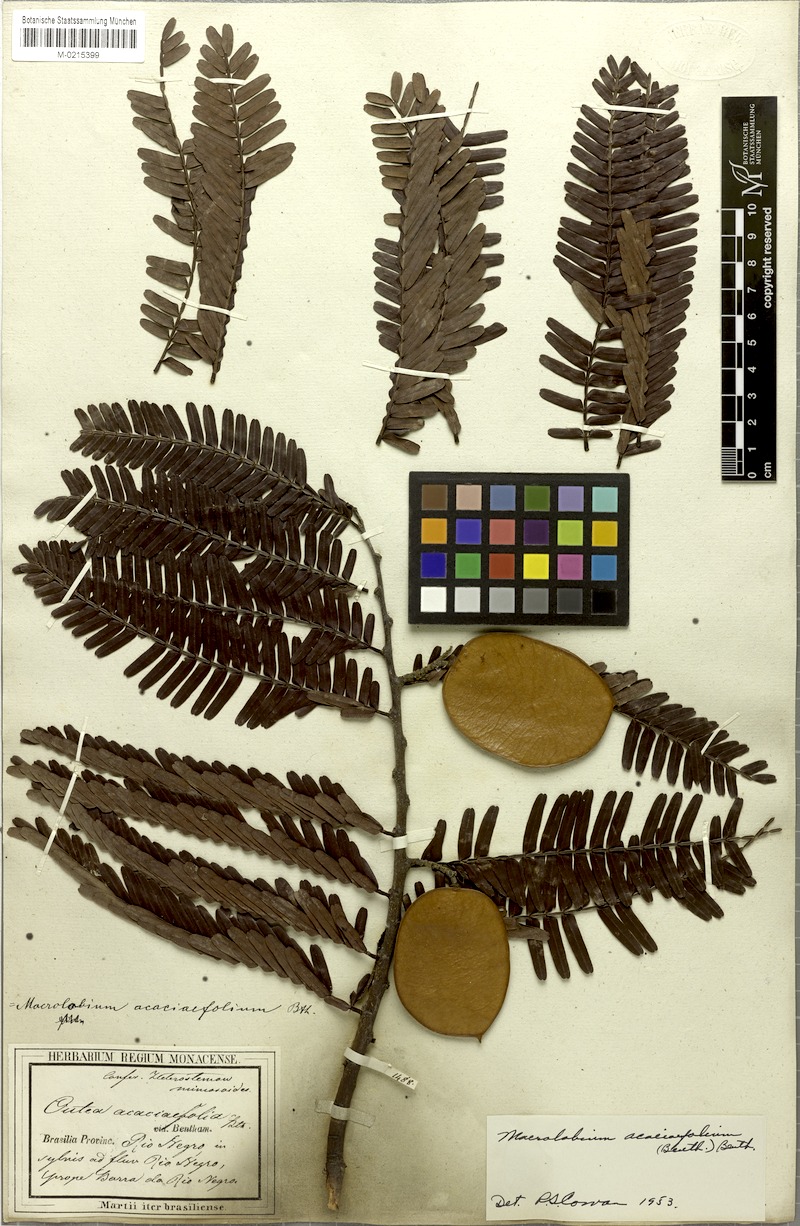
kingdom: Plantae
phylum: Tracheophyta
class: Magnoliopsida
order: Fabales
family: Fabaceae
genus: Macrolobium
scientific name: Macrolobium acaciifolium
